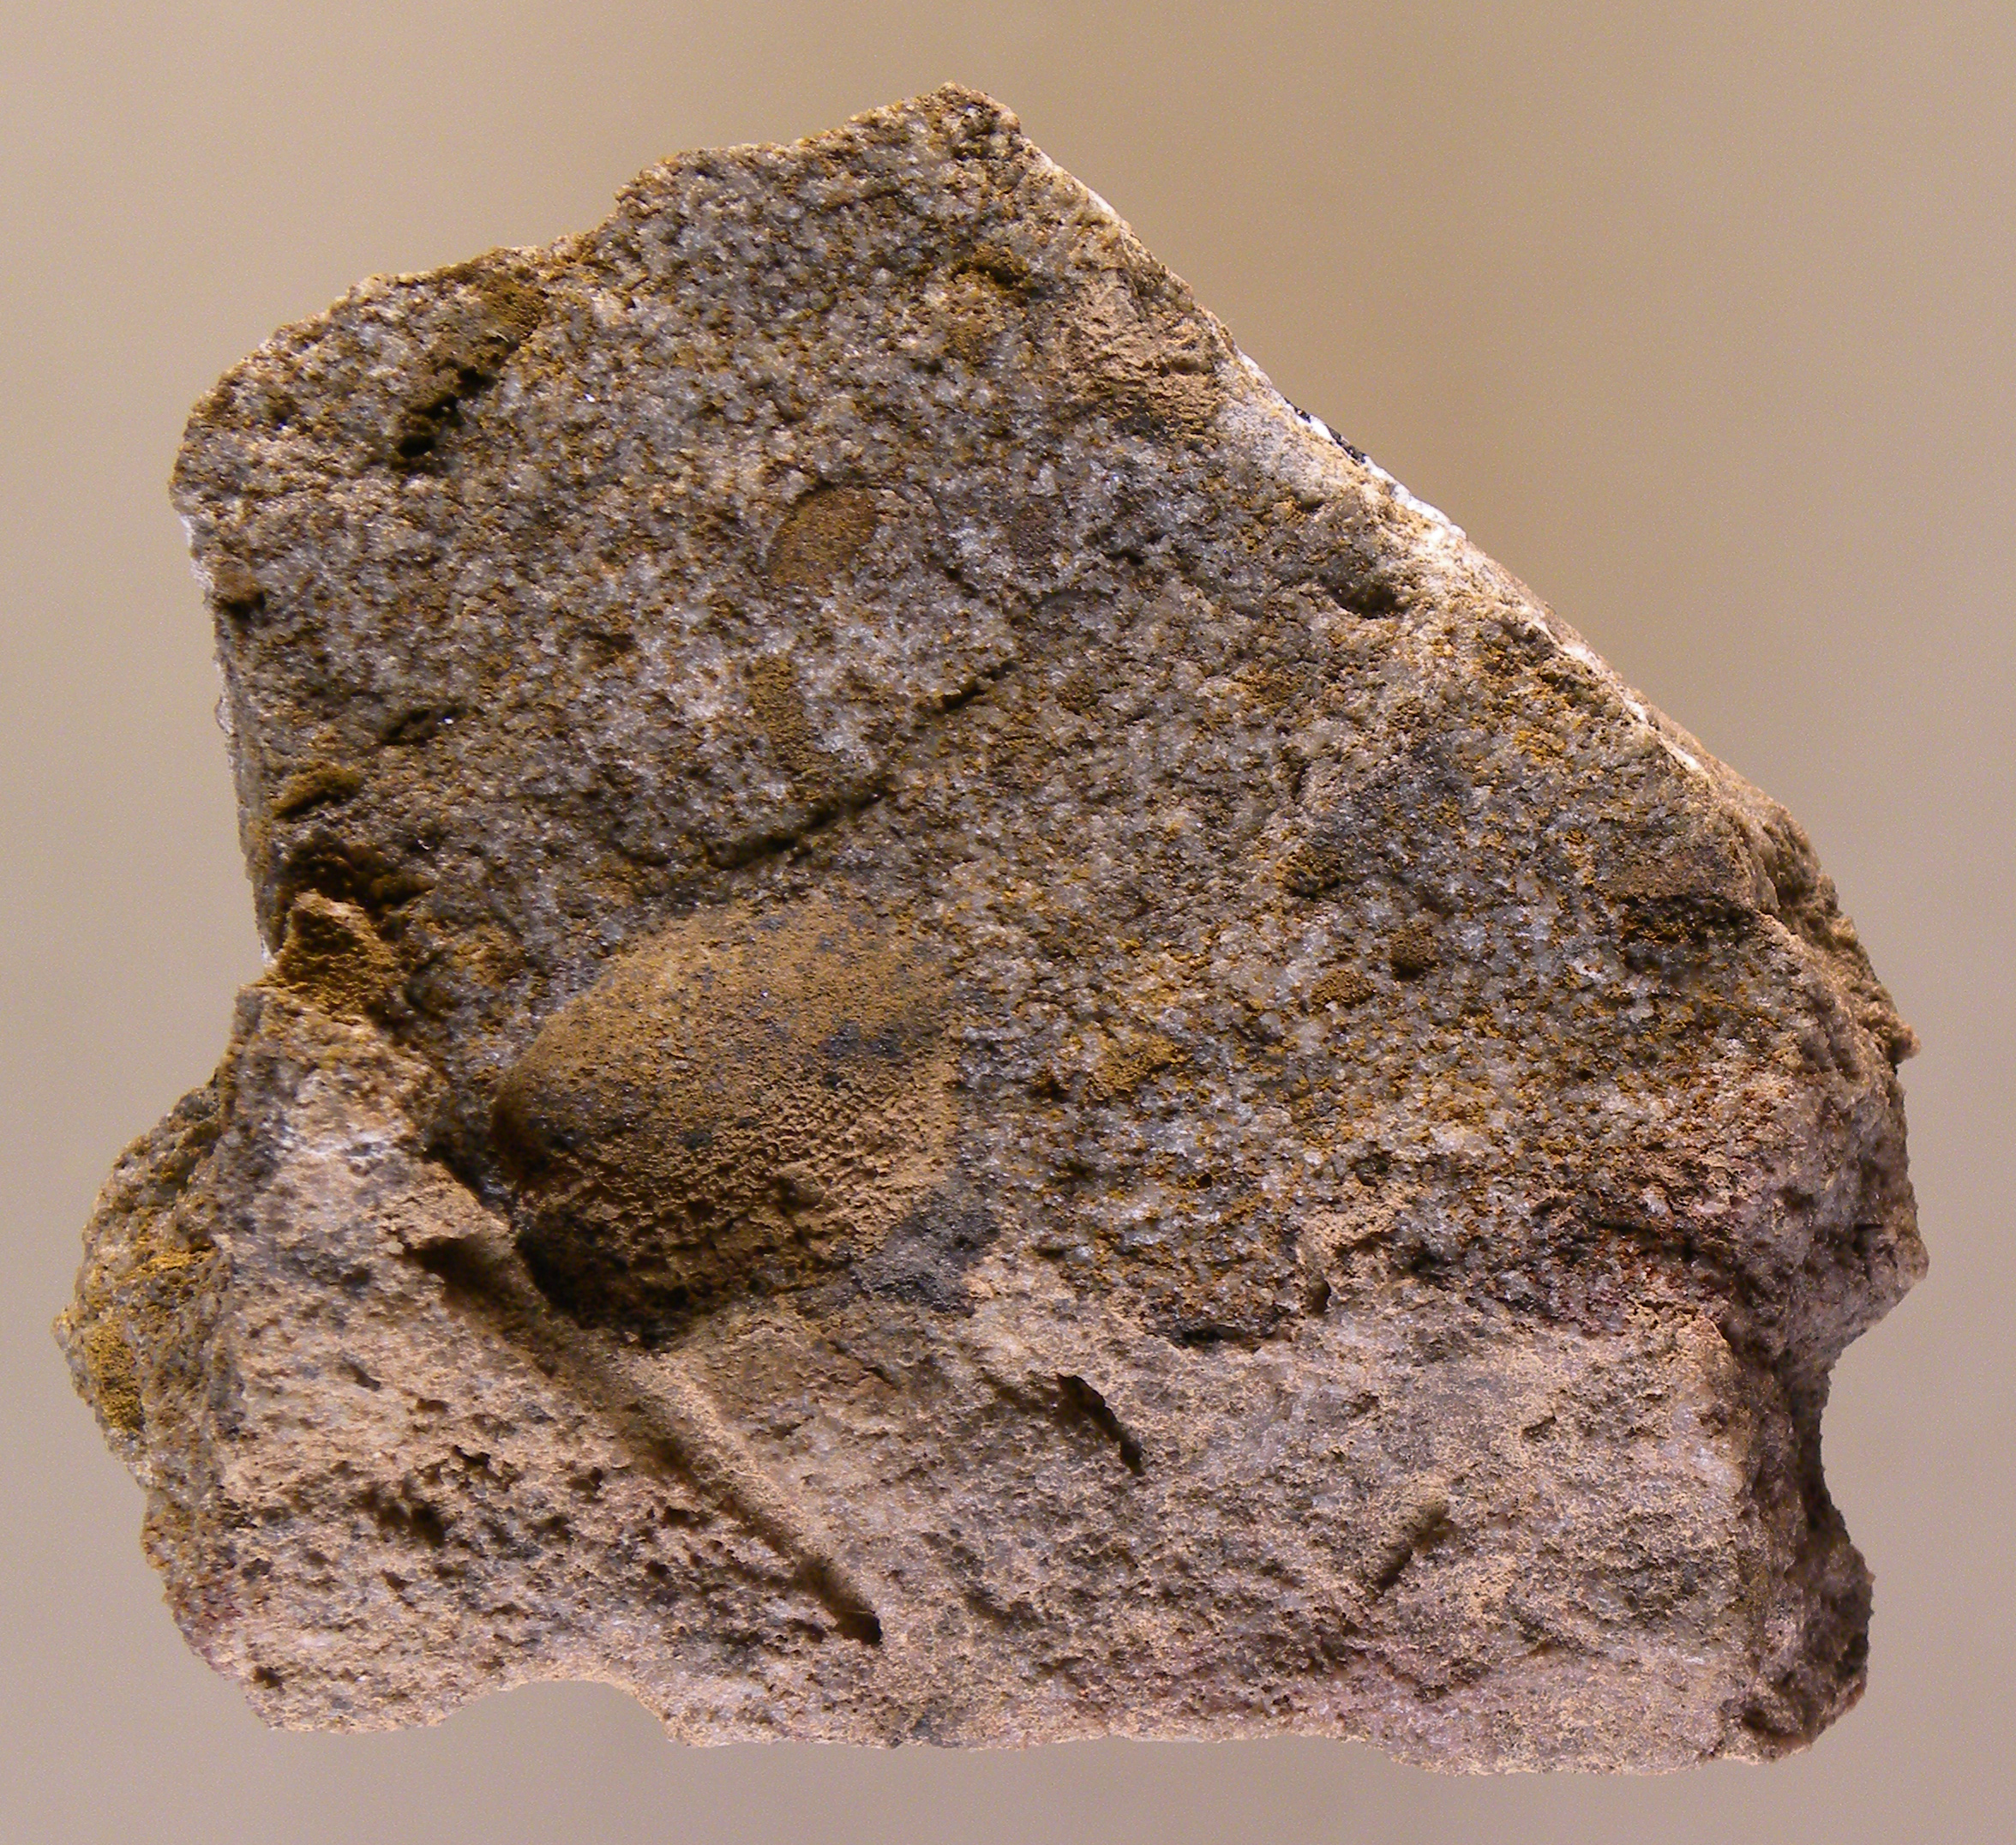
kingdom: Animalia
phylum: Mollusca
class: Bivalvia
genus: Rhenanomya
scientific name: Rhenanomya
